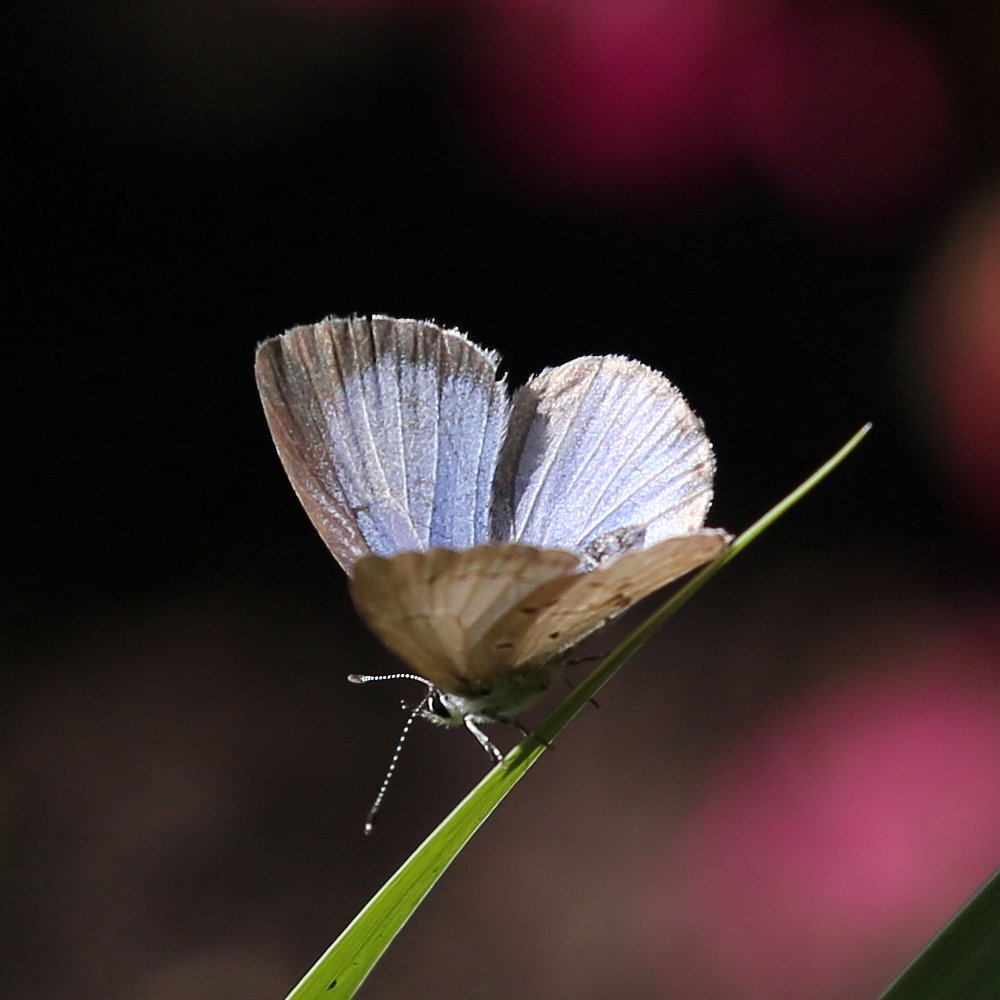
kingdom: Animalia
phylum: Arthropoda
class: Insecta
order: Lepidoptera
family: Lycaenidae
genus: Celastrina
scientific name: Celastrina lucia
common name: Northern Spring Azure
